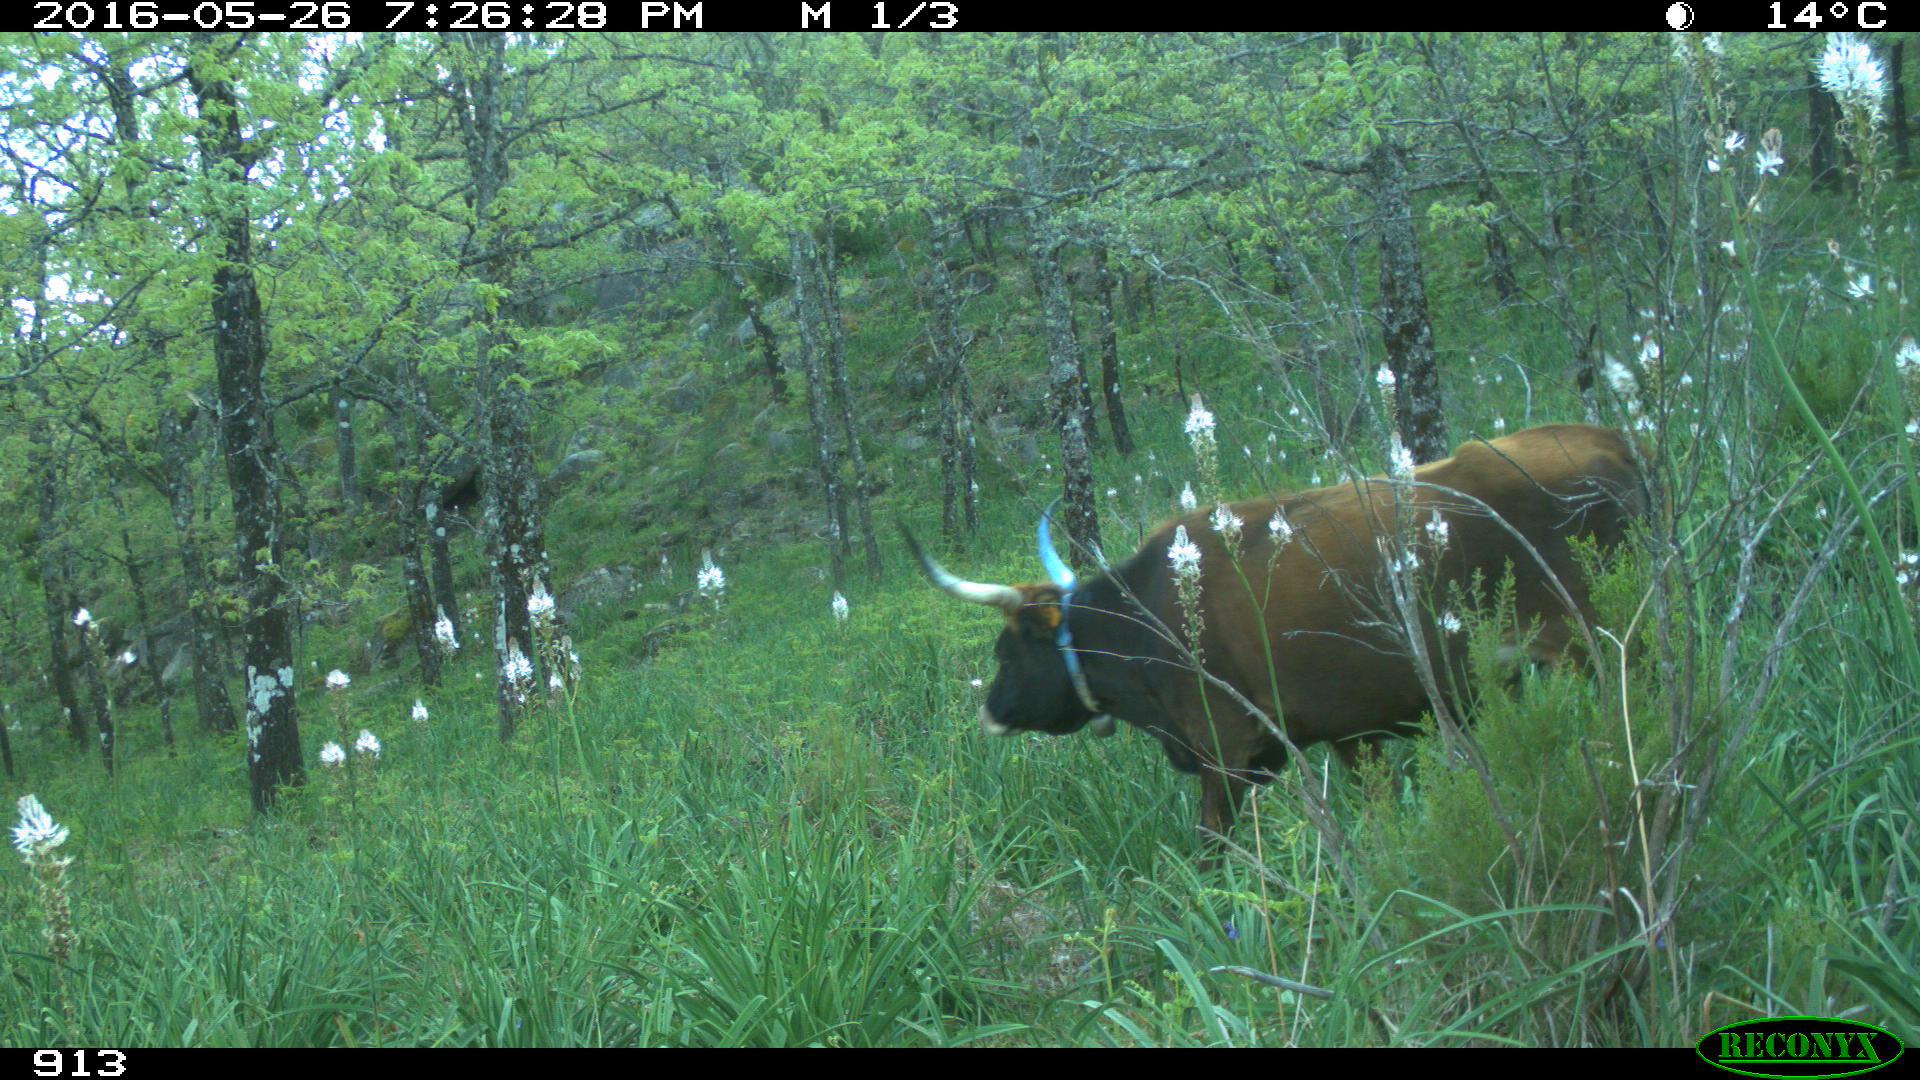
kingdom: Animalia
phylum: Chordata
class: Mammalia
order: Artiodactyla
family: Bovidae
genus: Bos
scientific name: Bos taurus
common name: Domesticated cattle
